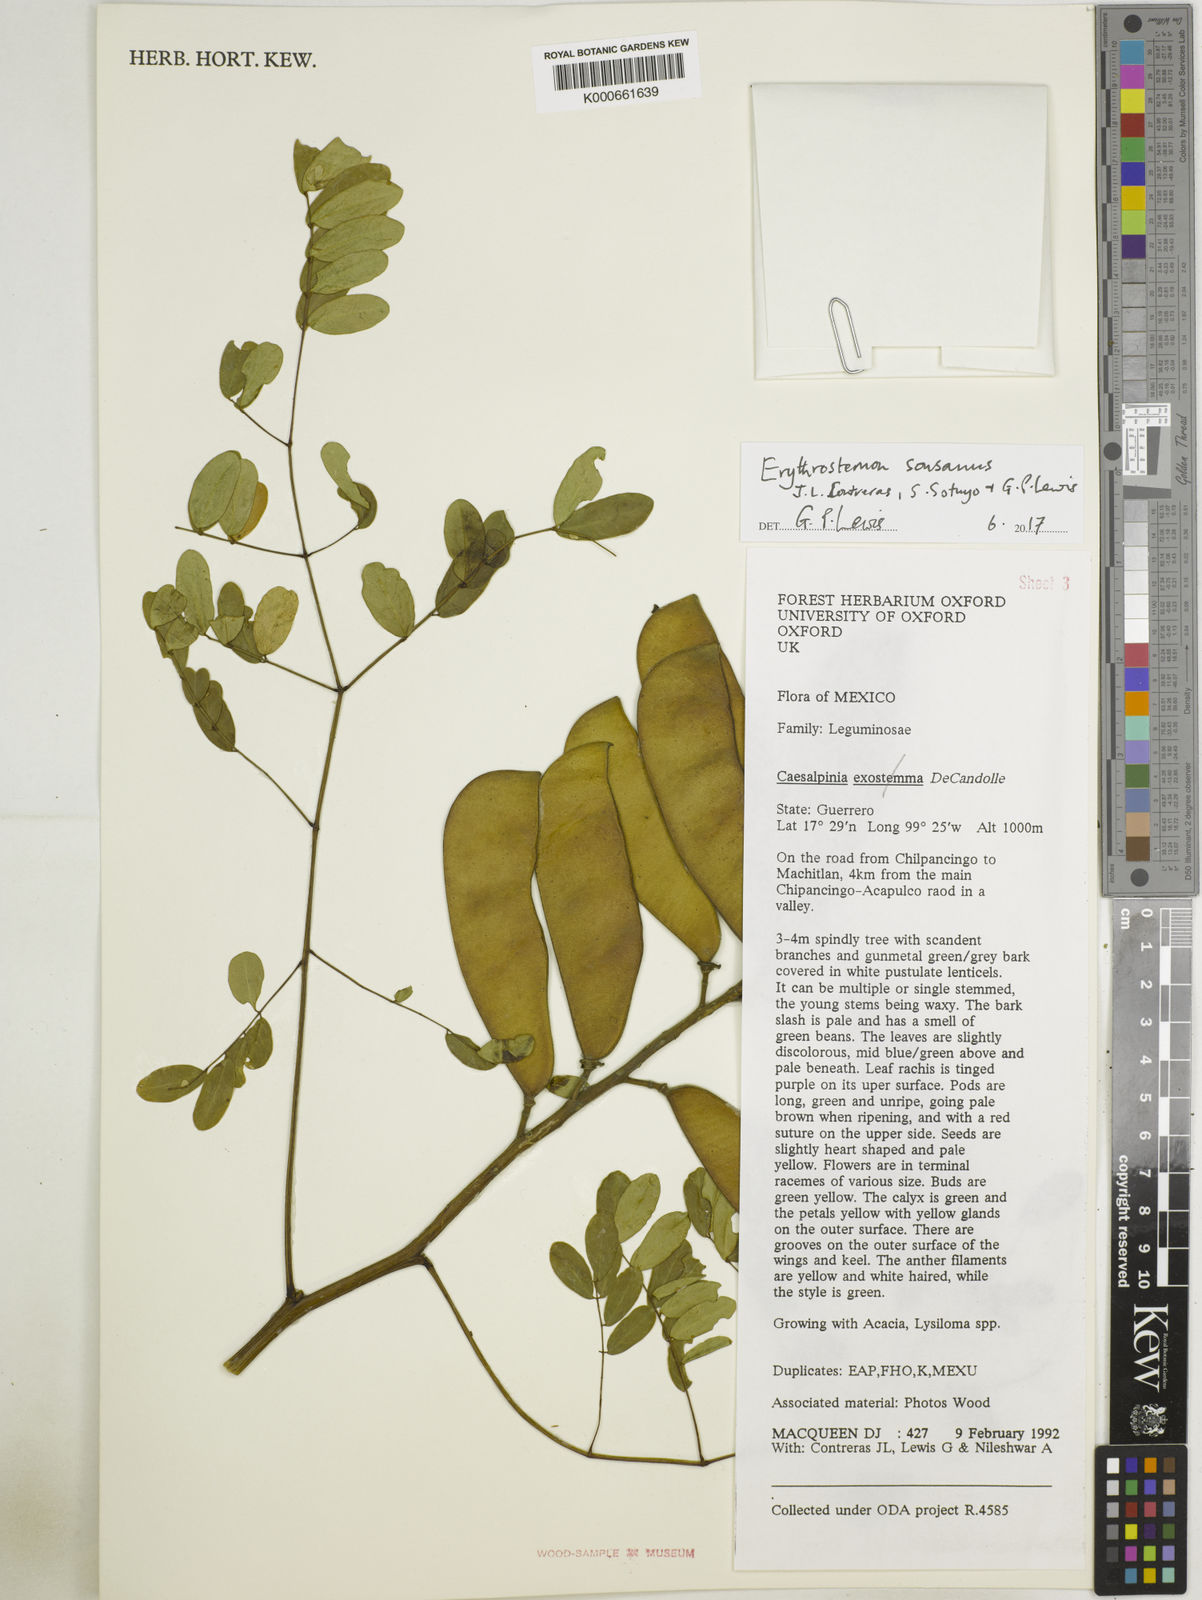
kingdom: Plantae
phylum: Tracheophyta
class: Magnoliopsida
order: Fabales
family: Fabaceae
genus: Caesalpinia
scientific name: Caesalpinia
